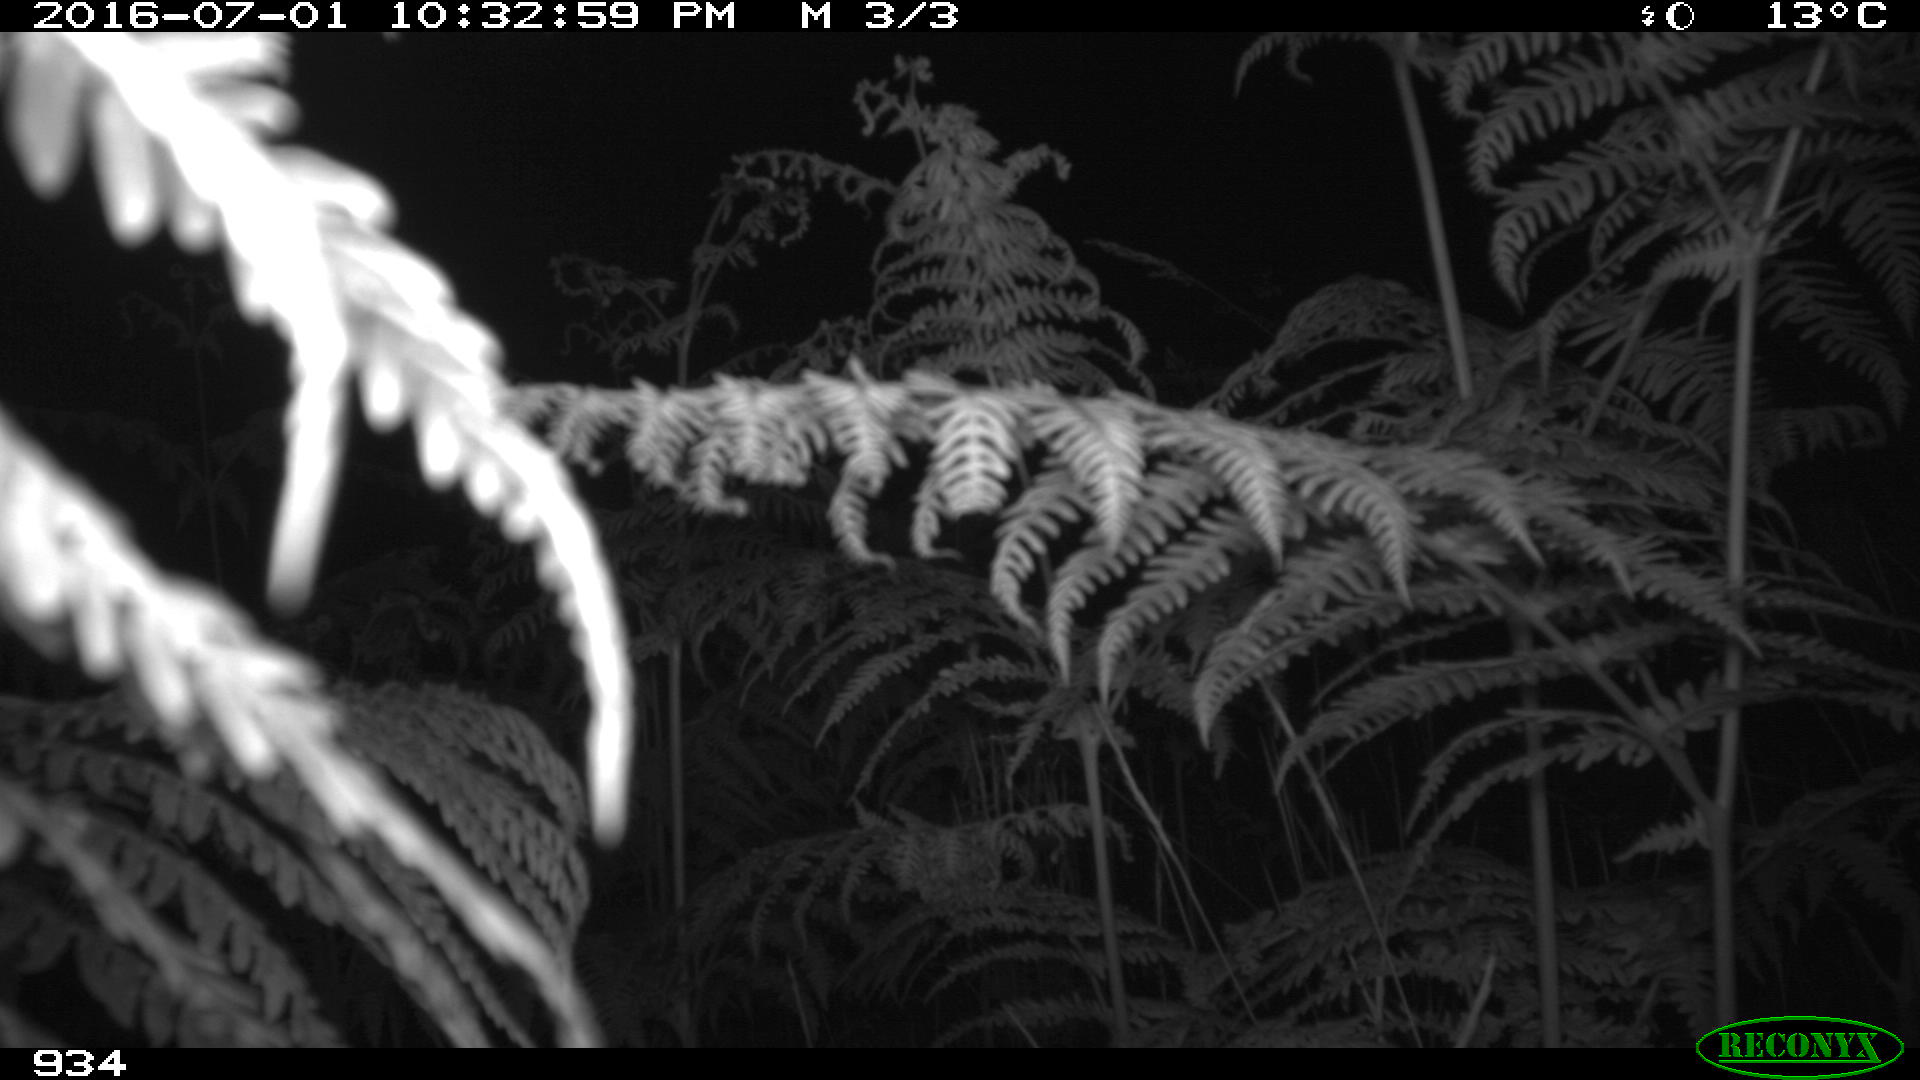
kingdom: Animalia
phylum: Chordata
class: Mammalia
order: Perissodactyla
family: Equidae
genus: Equus
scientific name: Equus caballus
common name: Horse
